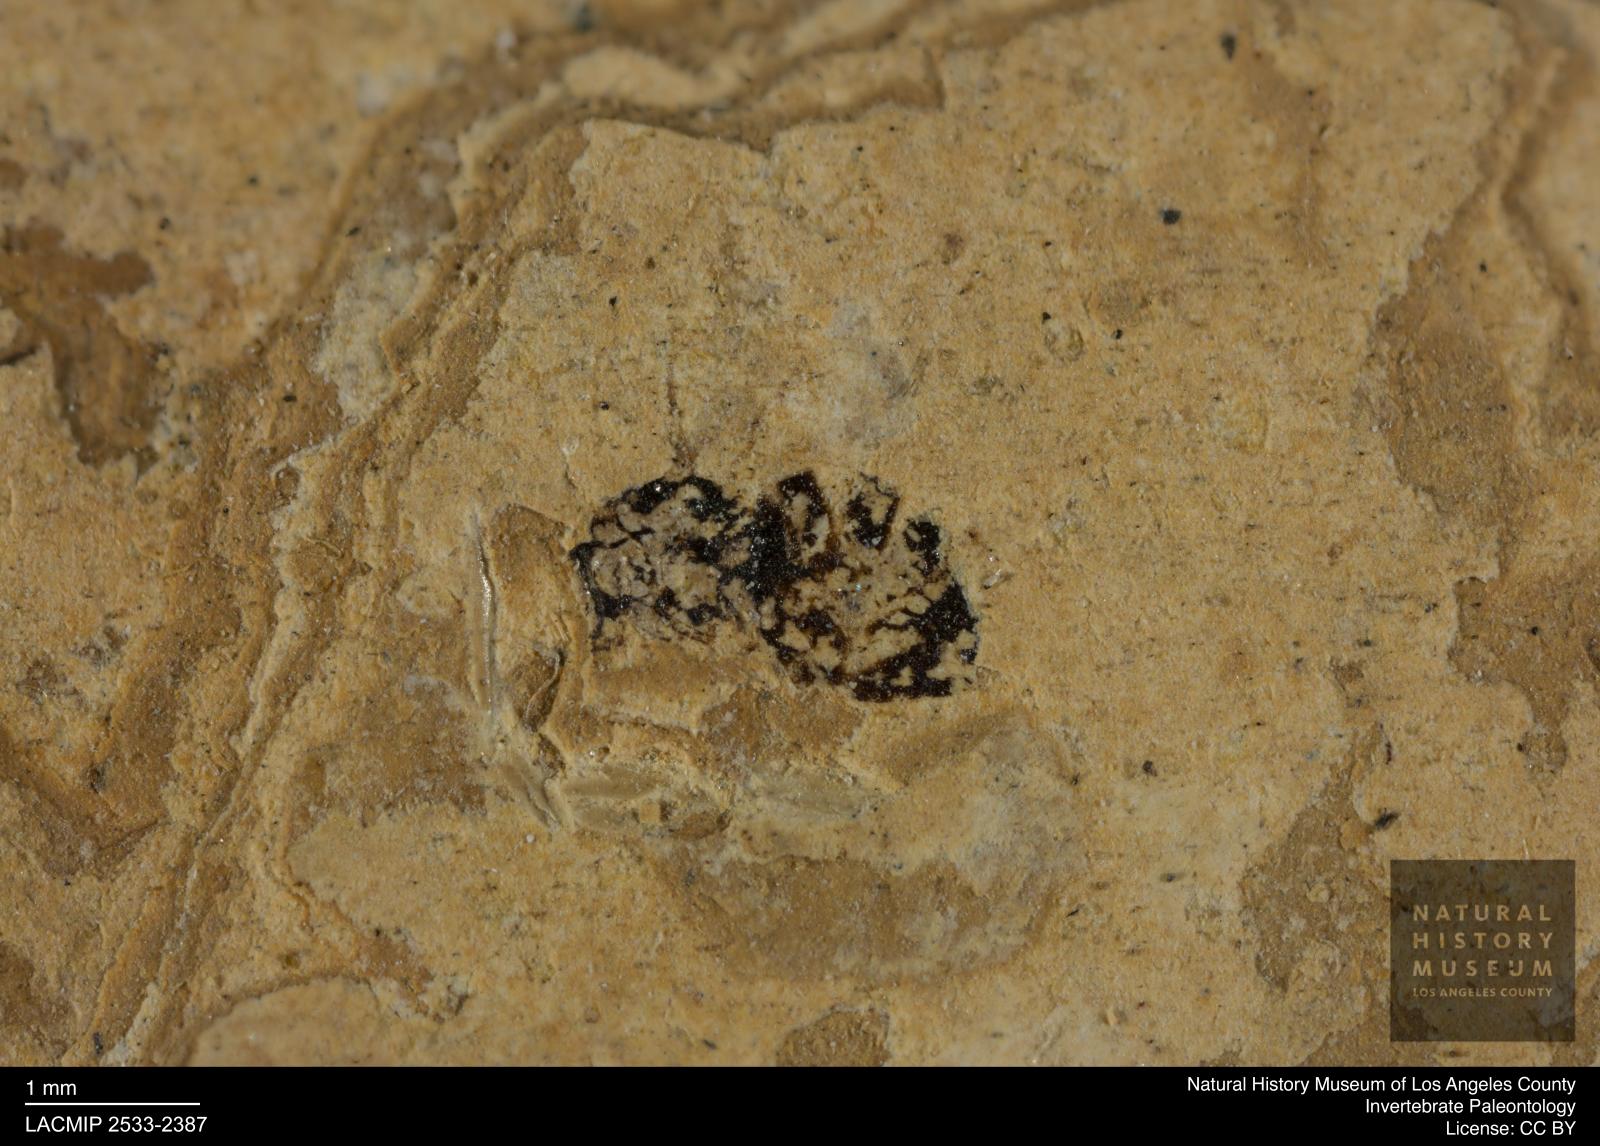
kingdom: Animalia
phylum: Arthropoda
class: Insecta
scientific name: Insecta
